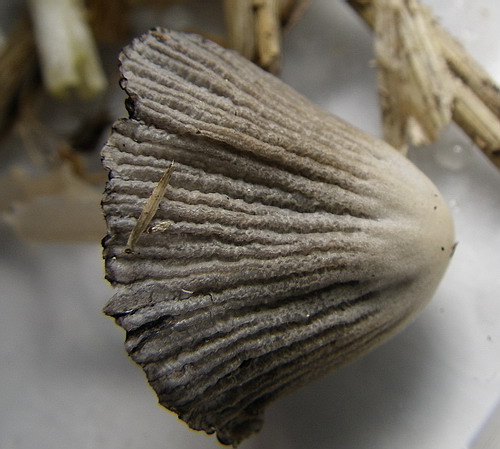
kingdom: Fungi
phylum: Basidiomycota
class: Agaricomycetes
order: Agaricales
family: Psathyrellaceae
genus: Tulosesus
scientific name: Tulosesus bisporus
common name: tosporet blækhat
